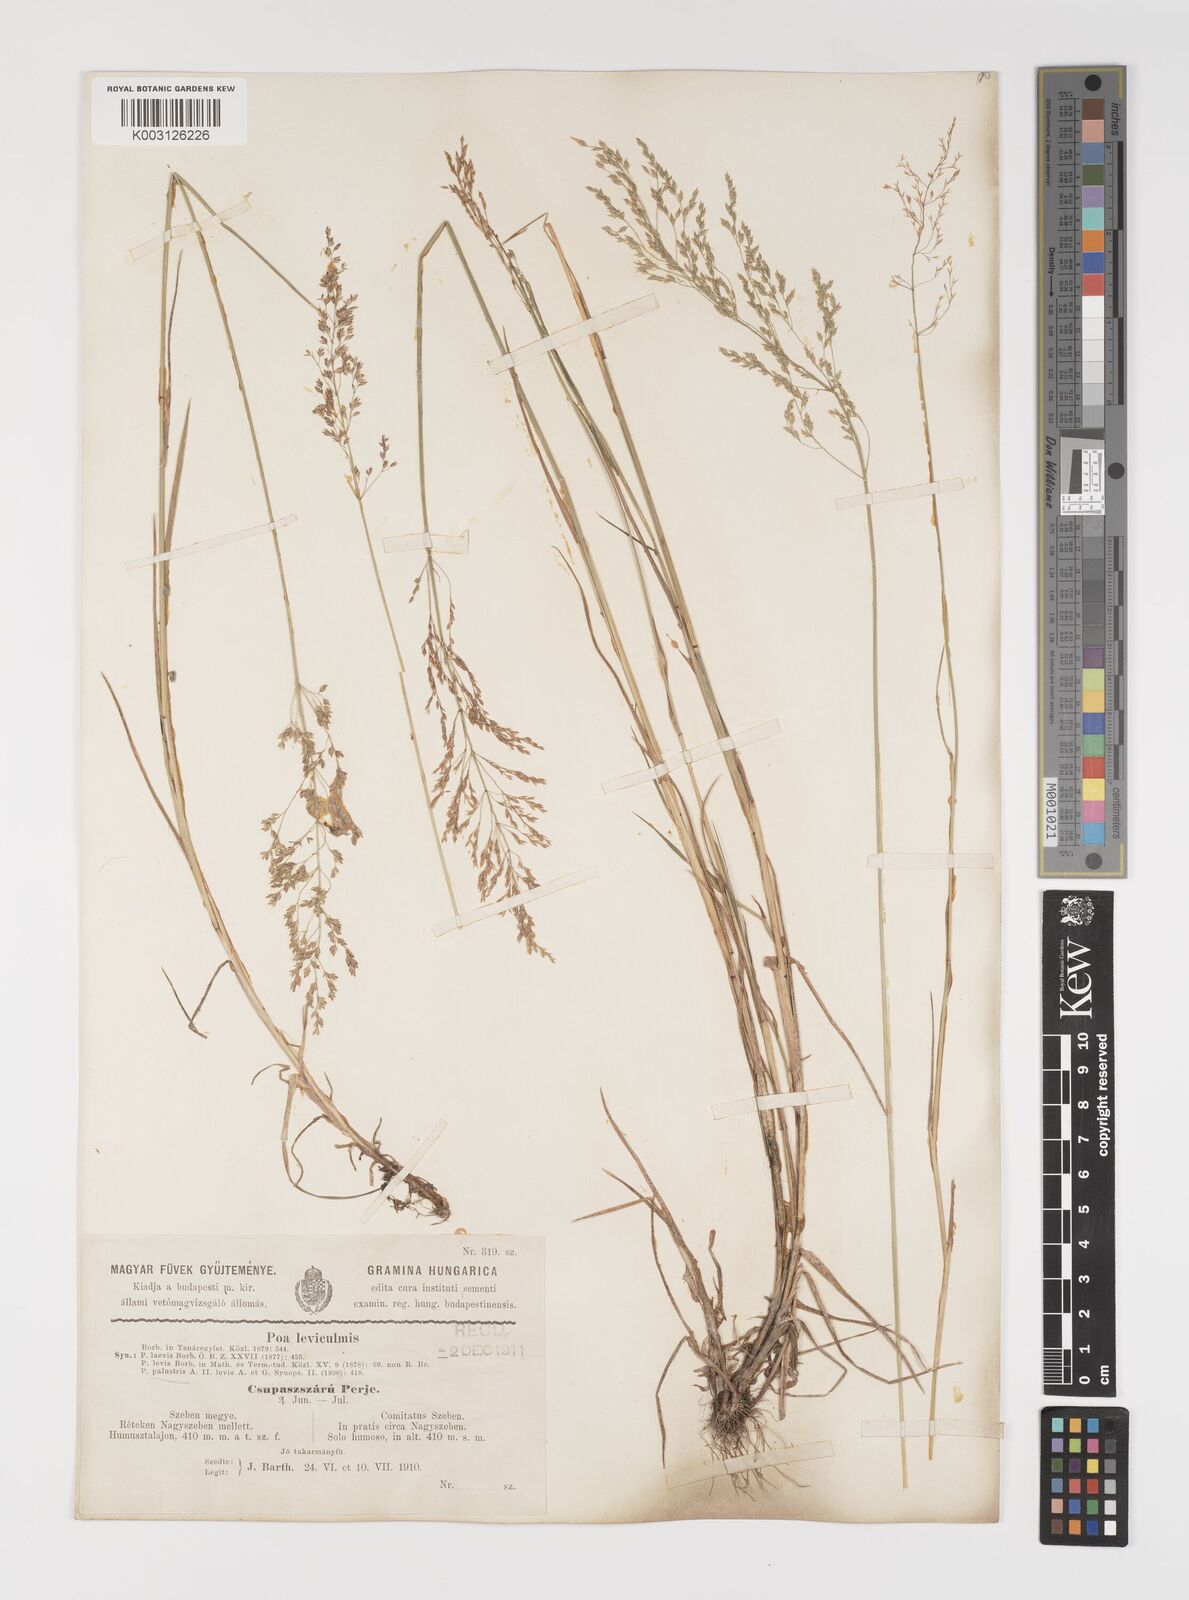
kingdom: Plantae
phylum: Tracheophyta
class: Liliopsida
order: Poales
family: Poaceae
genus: Poa
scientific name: Poa palustris
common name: Swamp meadow-grass
